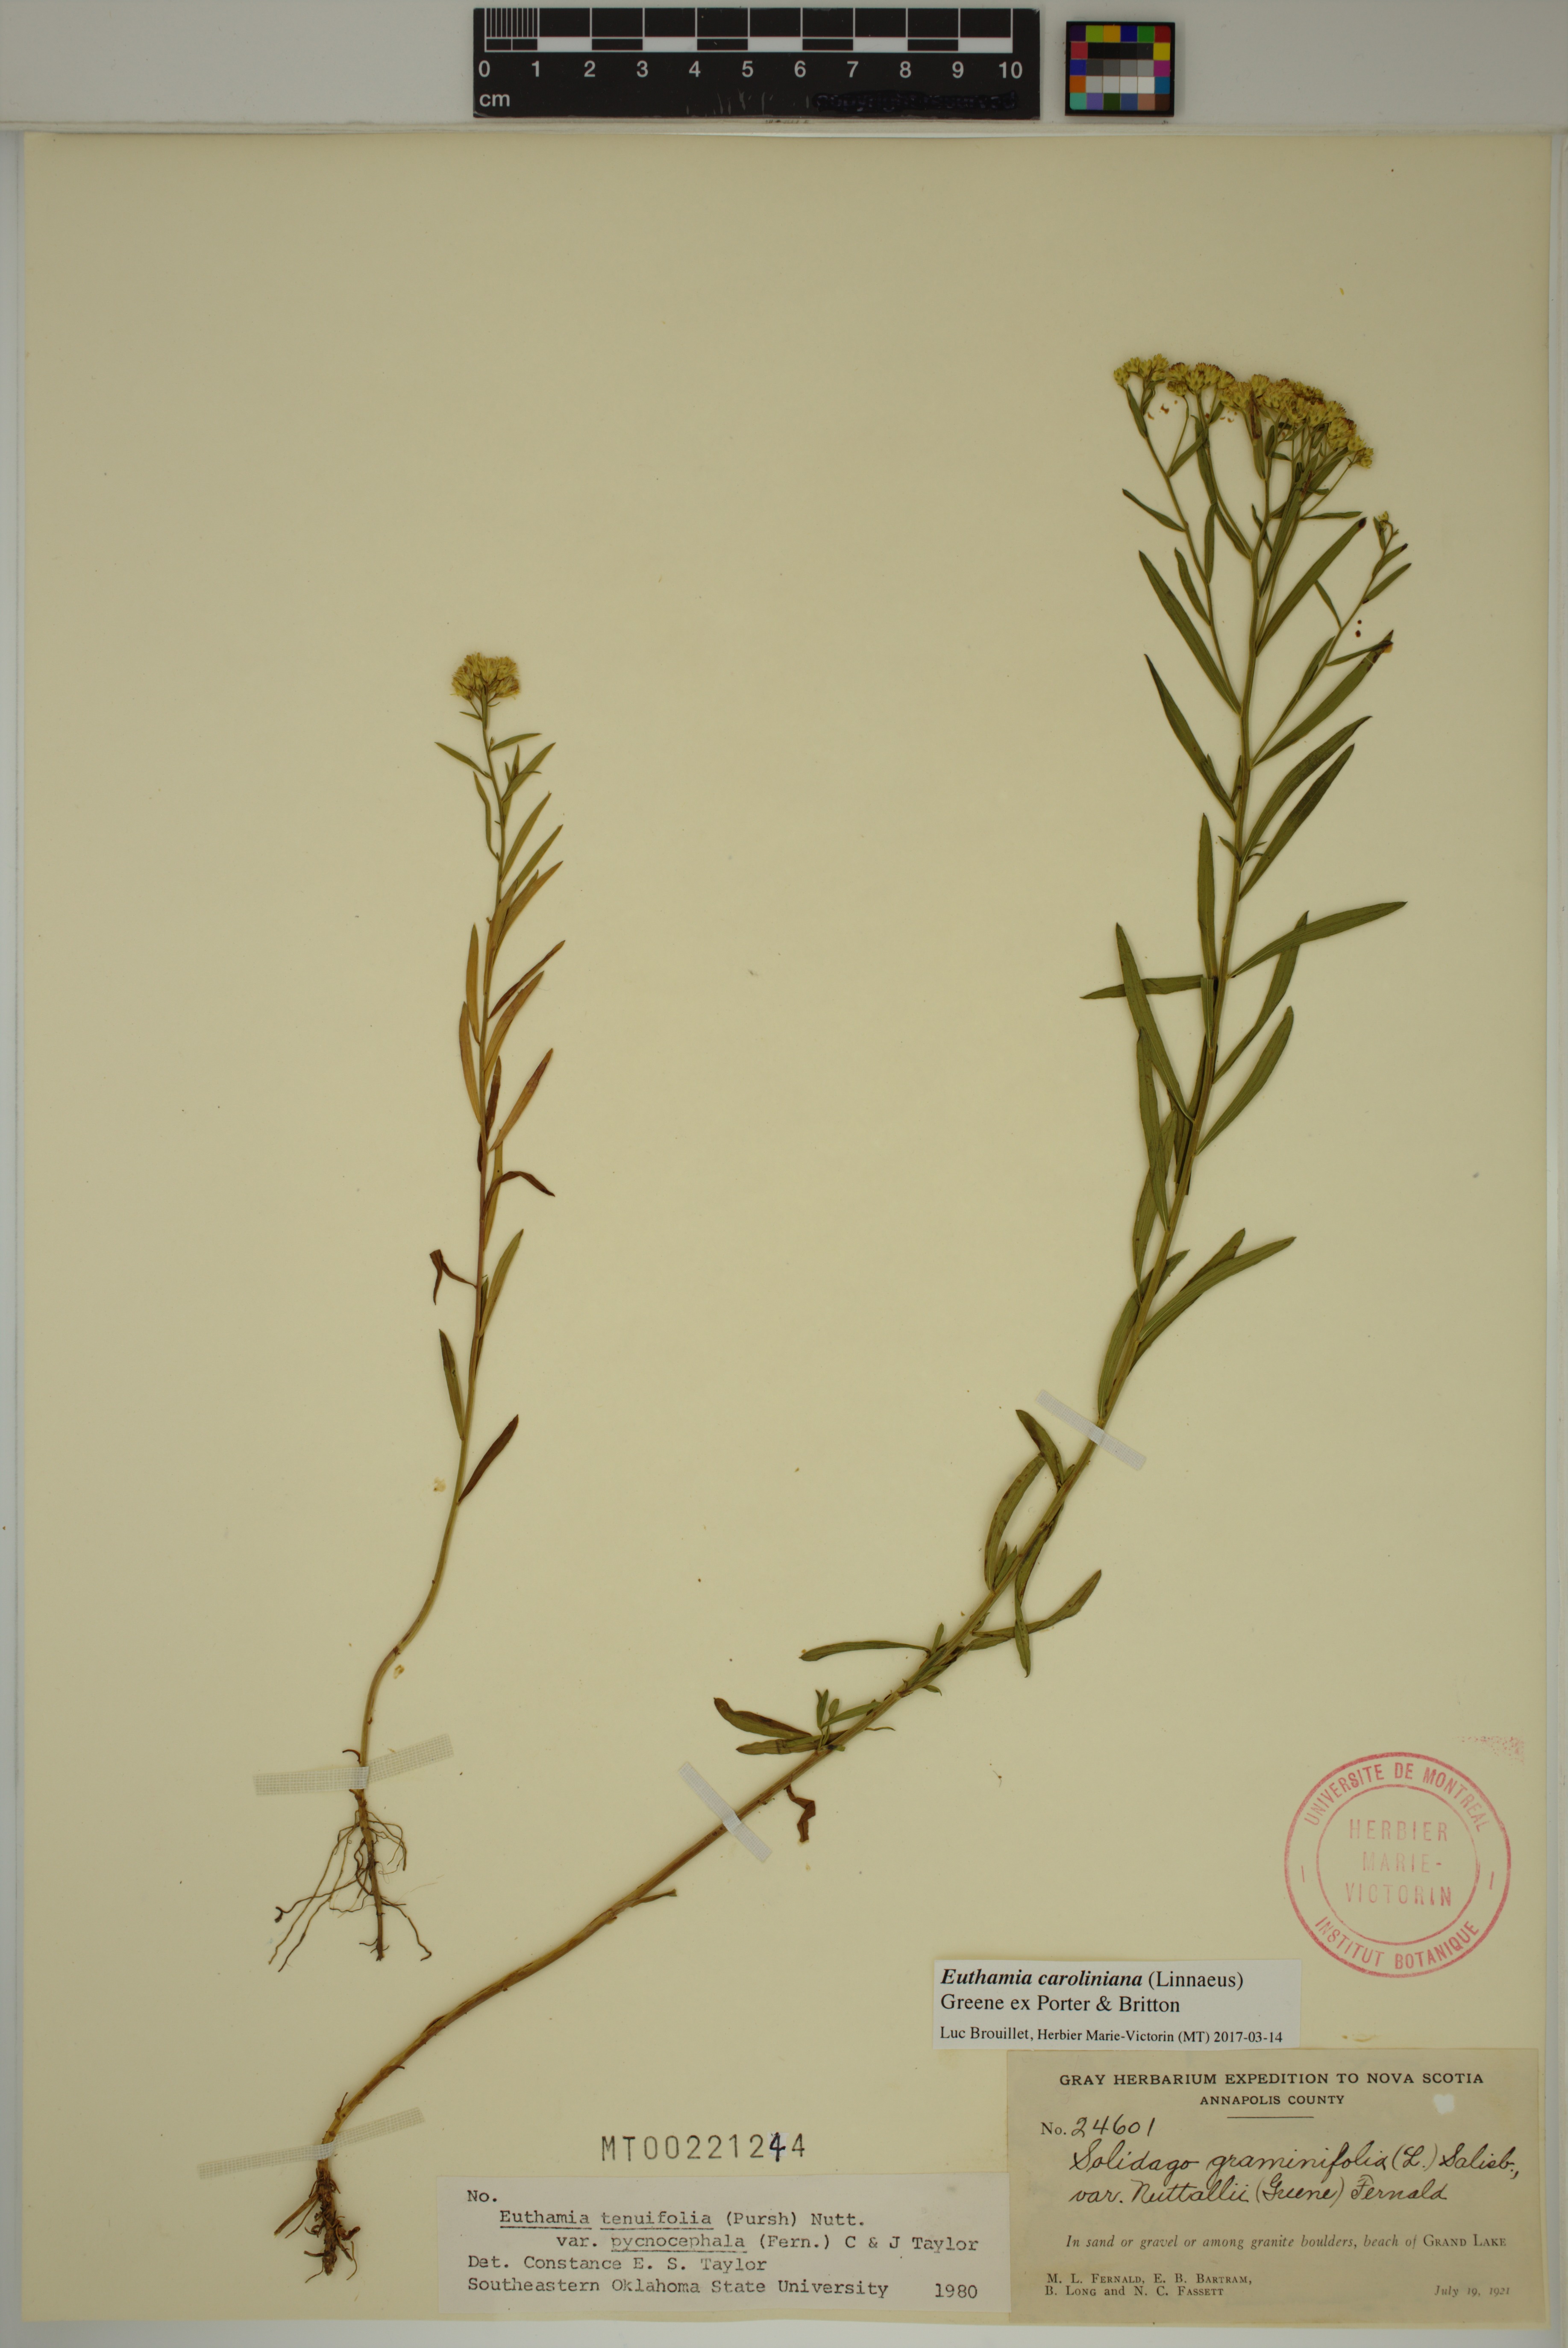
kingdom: Plantae
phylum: Tracheophyta
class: Magnoliopsida
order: Asterales
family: Asteraceae
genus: Euthamia
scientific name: Euthamia galetorum
